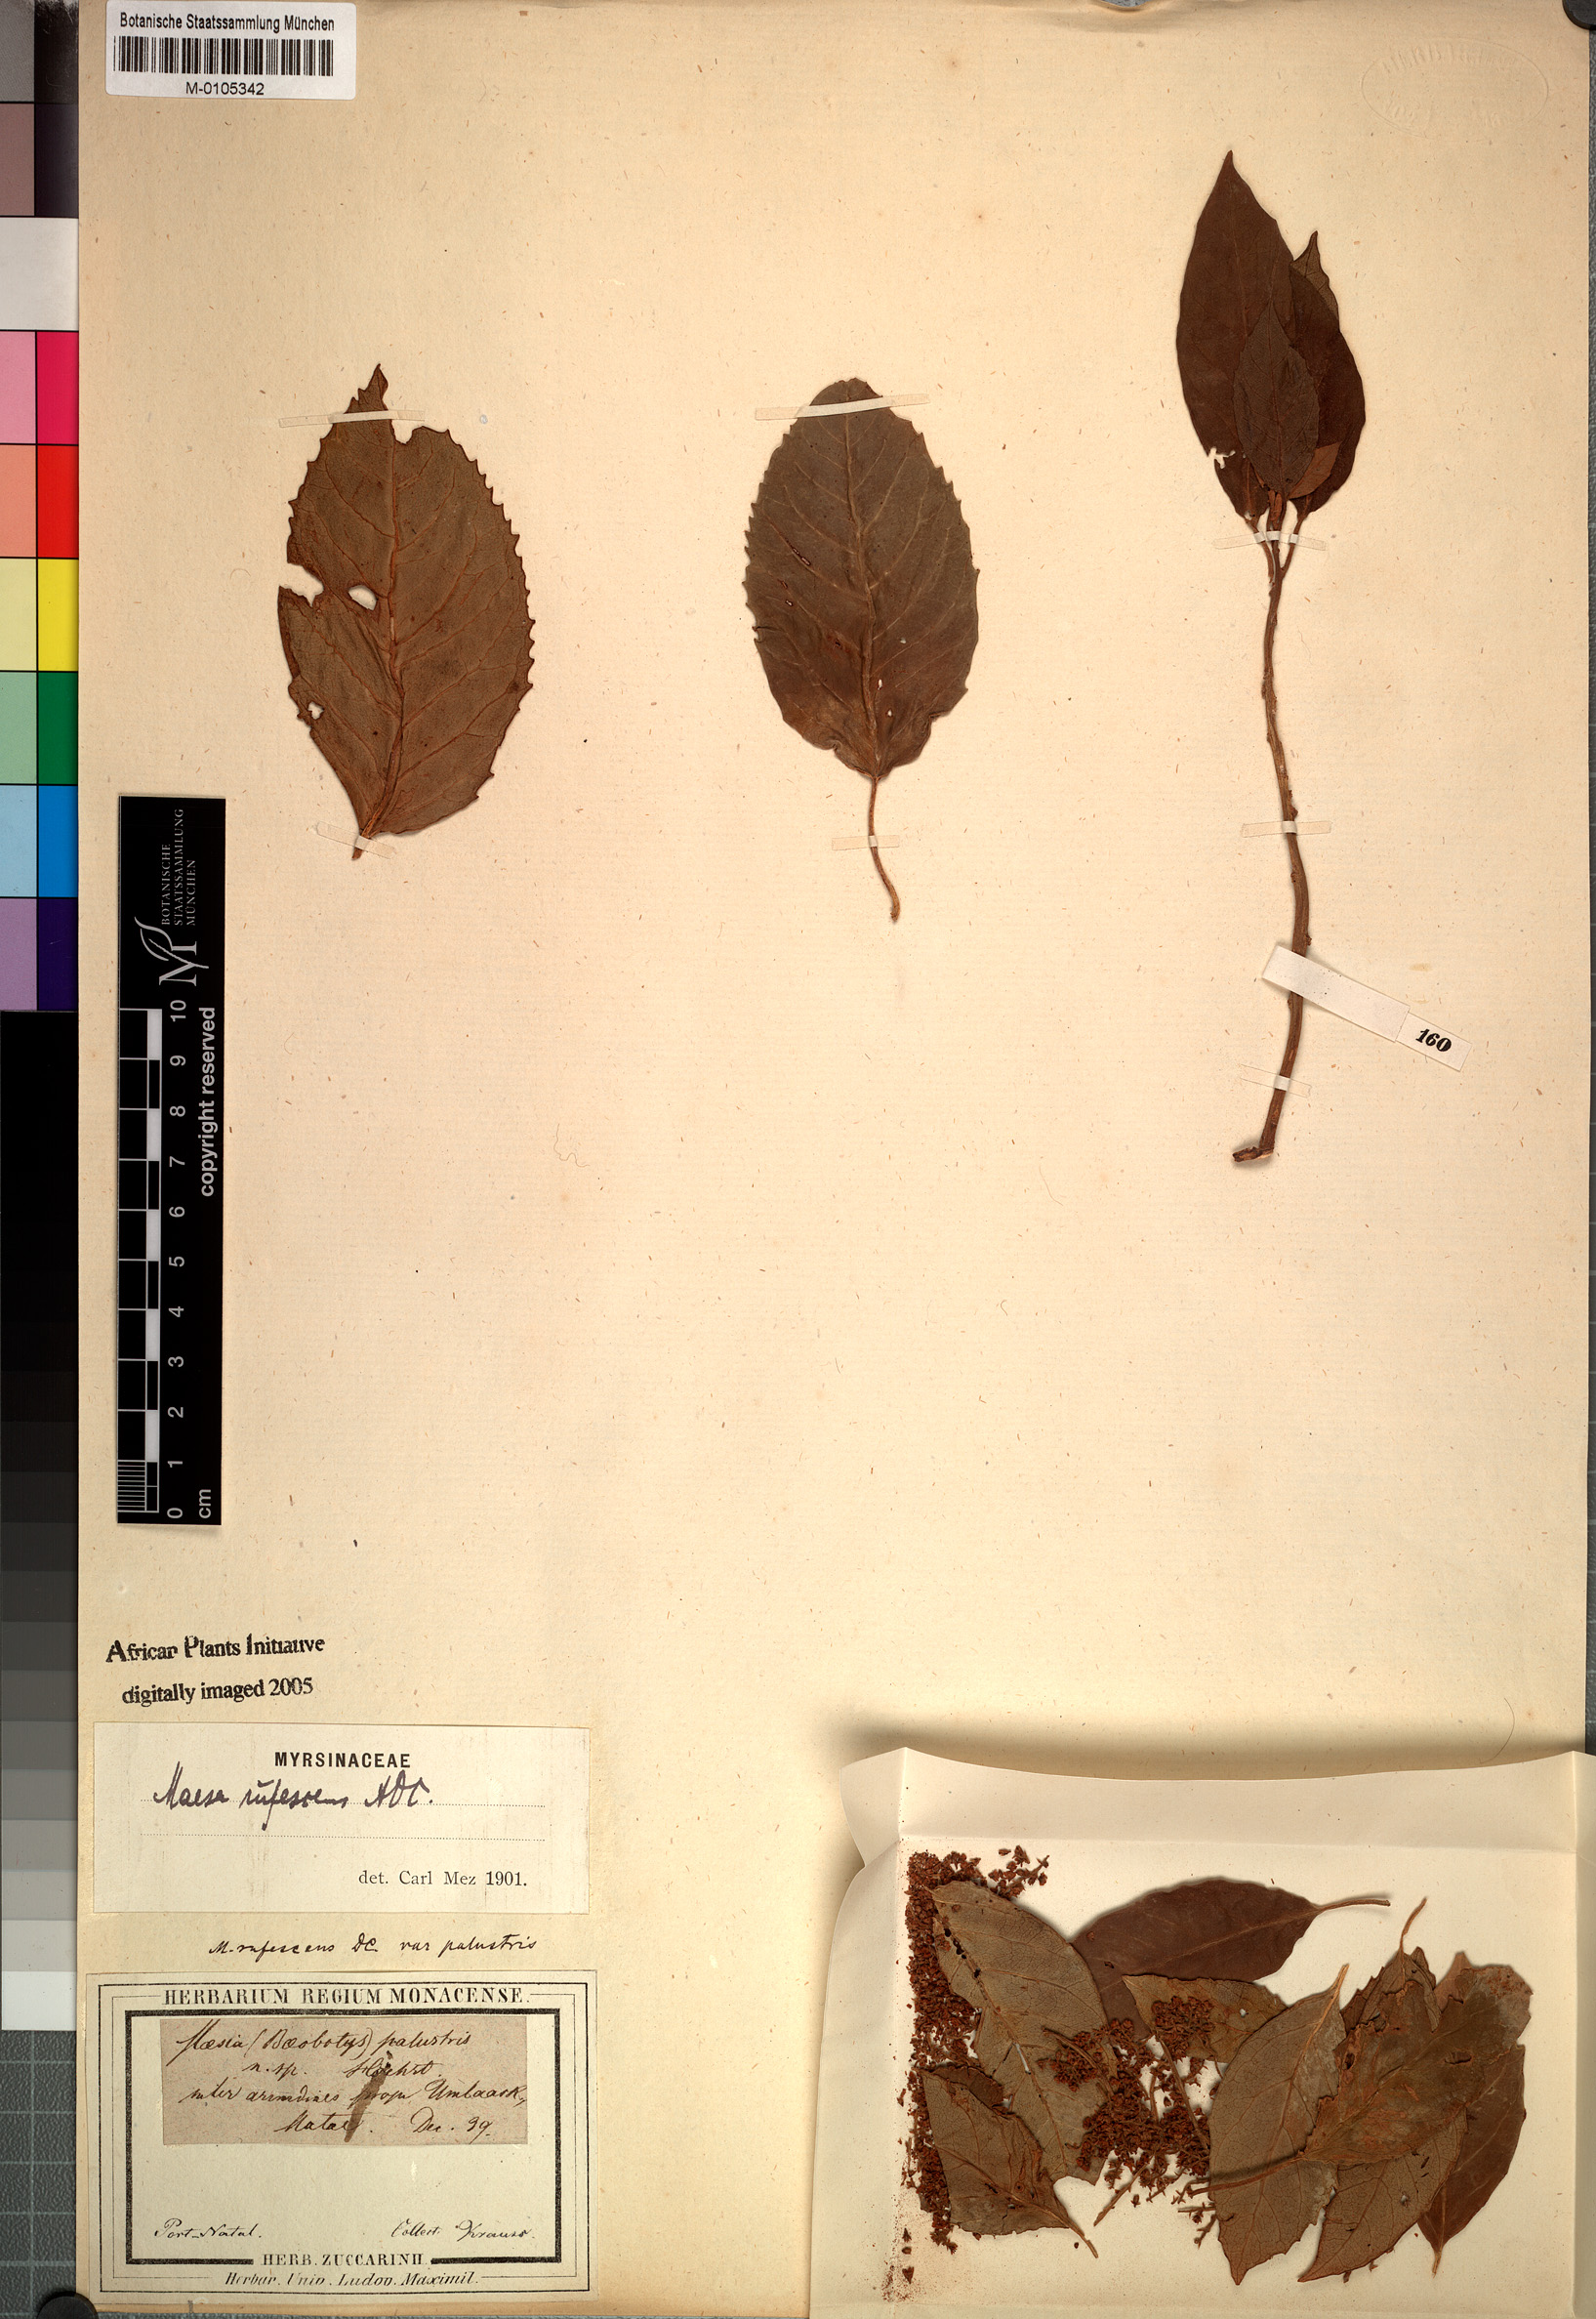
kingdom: Plantae
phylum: Tracheophyta
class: Magnoliopsida
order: Ericales
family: Primulaceae
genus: Maesa
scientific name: Maesa lanceolata
